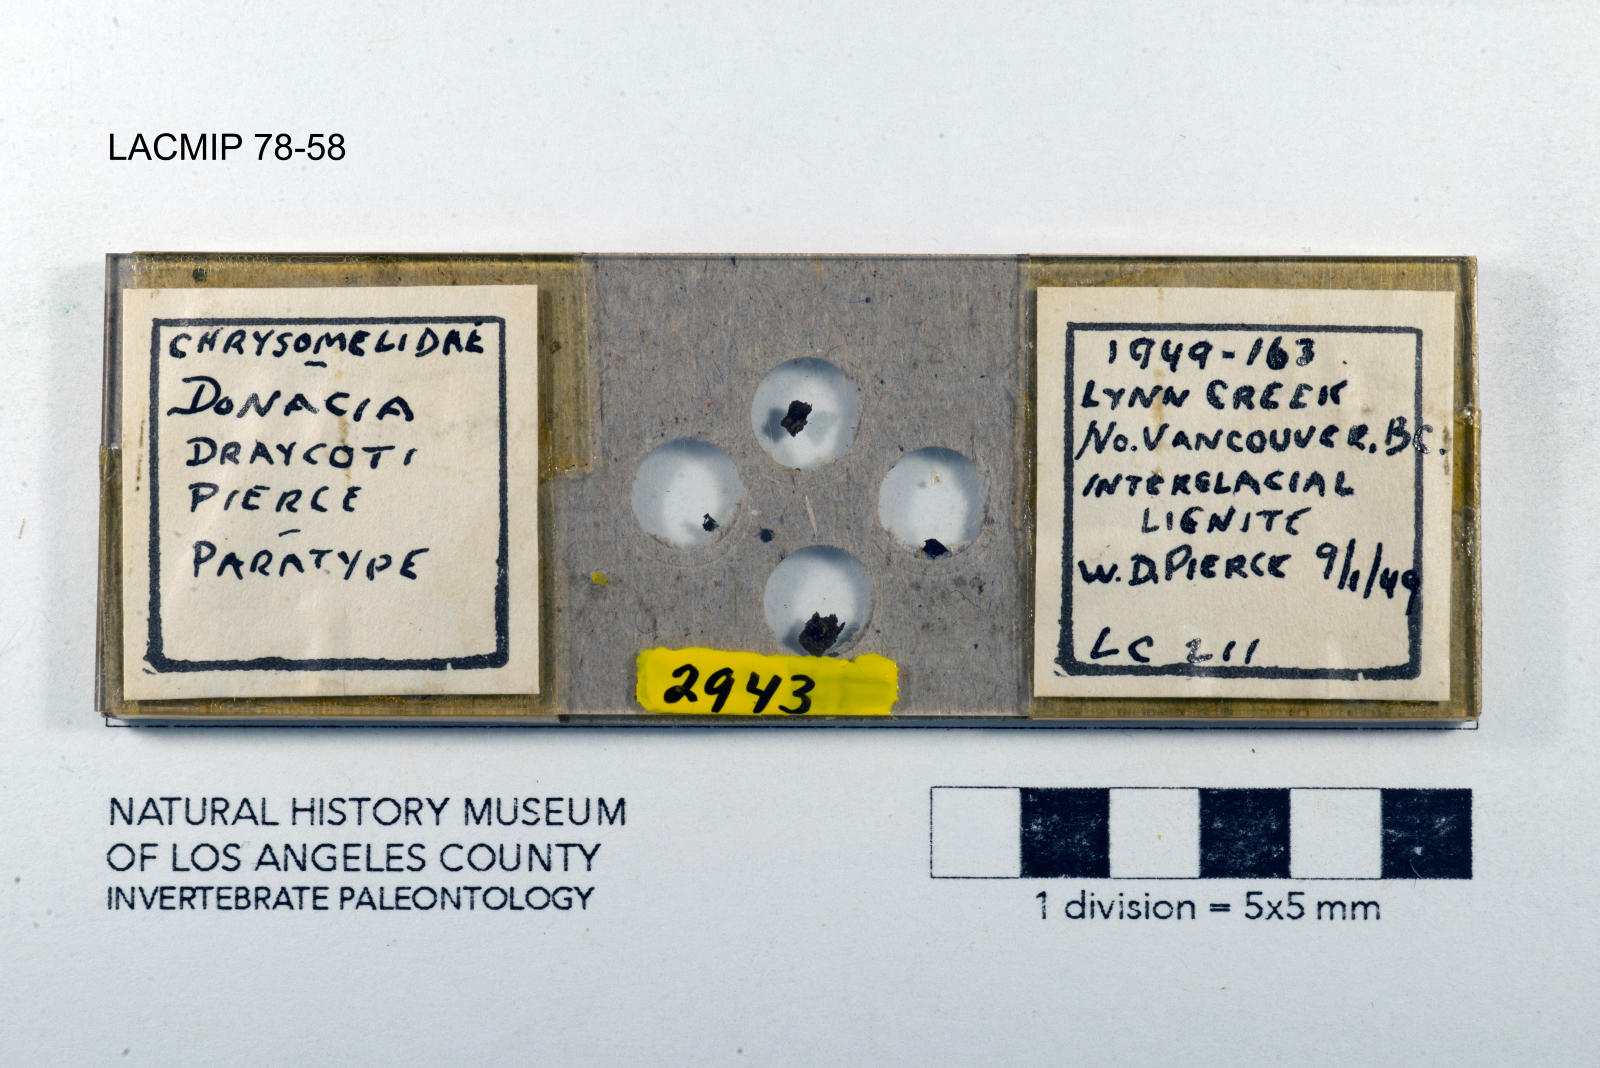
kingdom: Animalia
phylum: Arthropoda
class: Insecta
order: Coleoptera
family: Chrysomelidae
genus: Donacia
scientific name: Donacia draycoti
